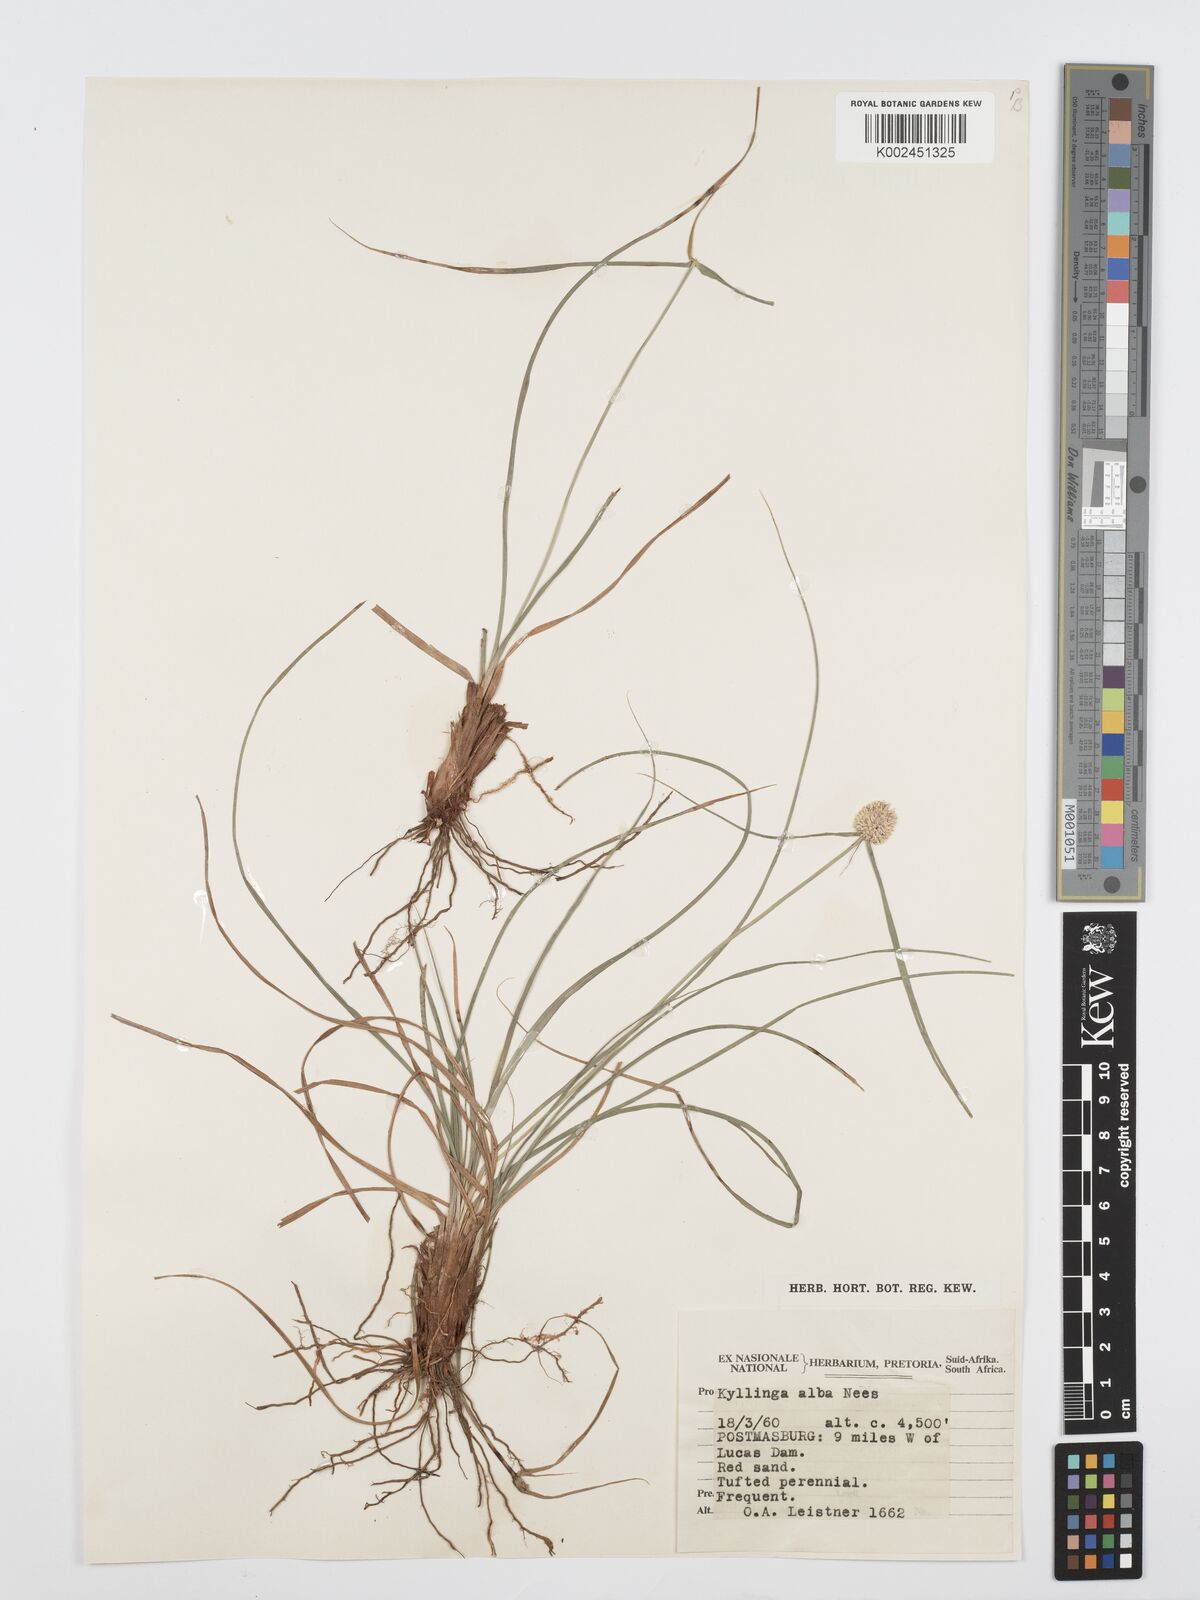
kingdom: Plantae
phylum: Tracheophyta
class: Liliopsida
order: Poales
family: Cyperaceae
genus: Cyperus
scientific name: Cyperus
